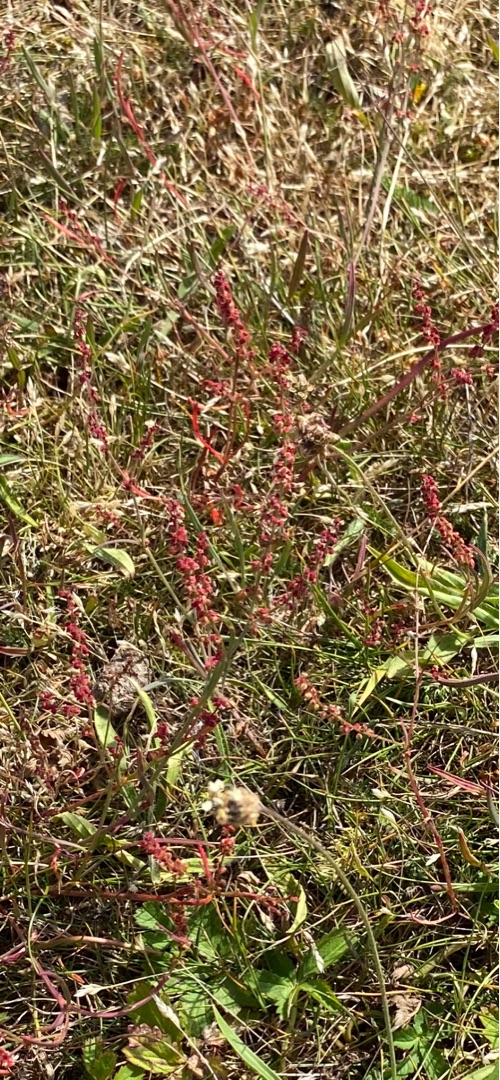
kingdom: Plantae
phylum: Tracheophyta
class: Magnoliopsida
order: Caryophyllales
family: Polygonaceae
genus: Rumex
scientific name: Rumex acetosella
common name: Rødknæ
